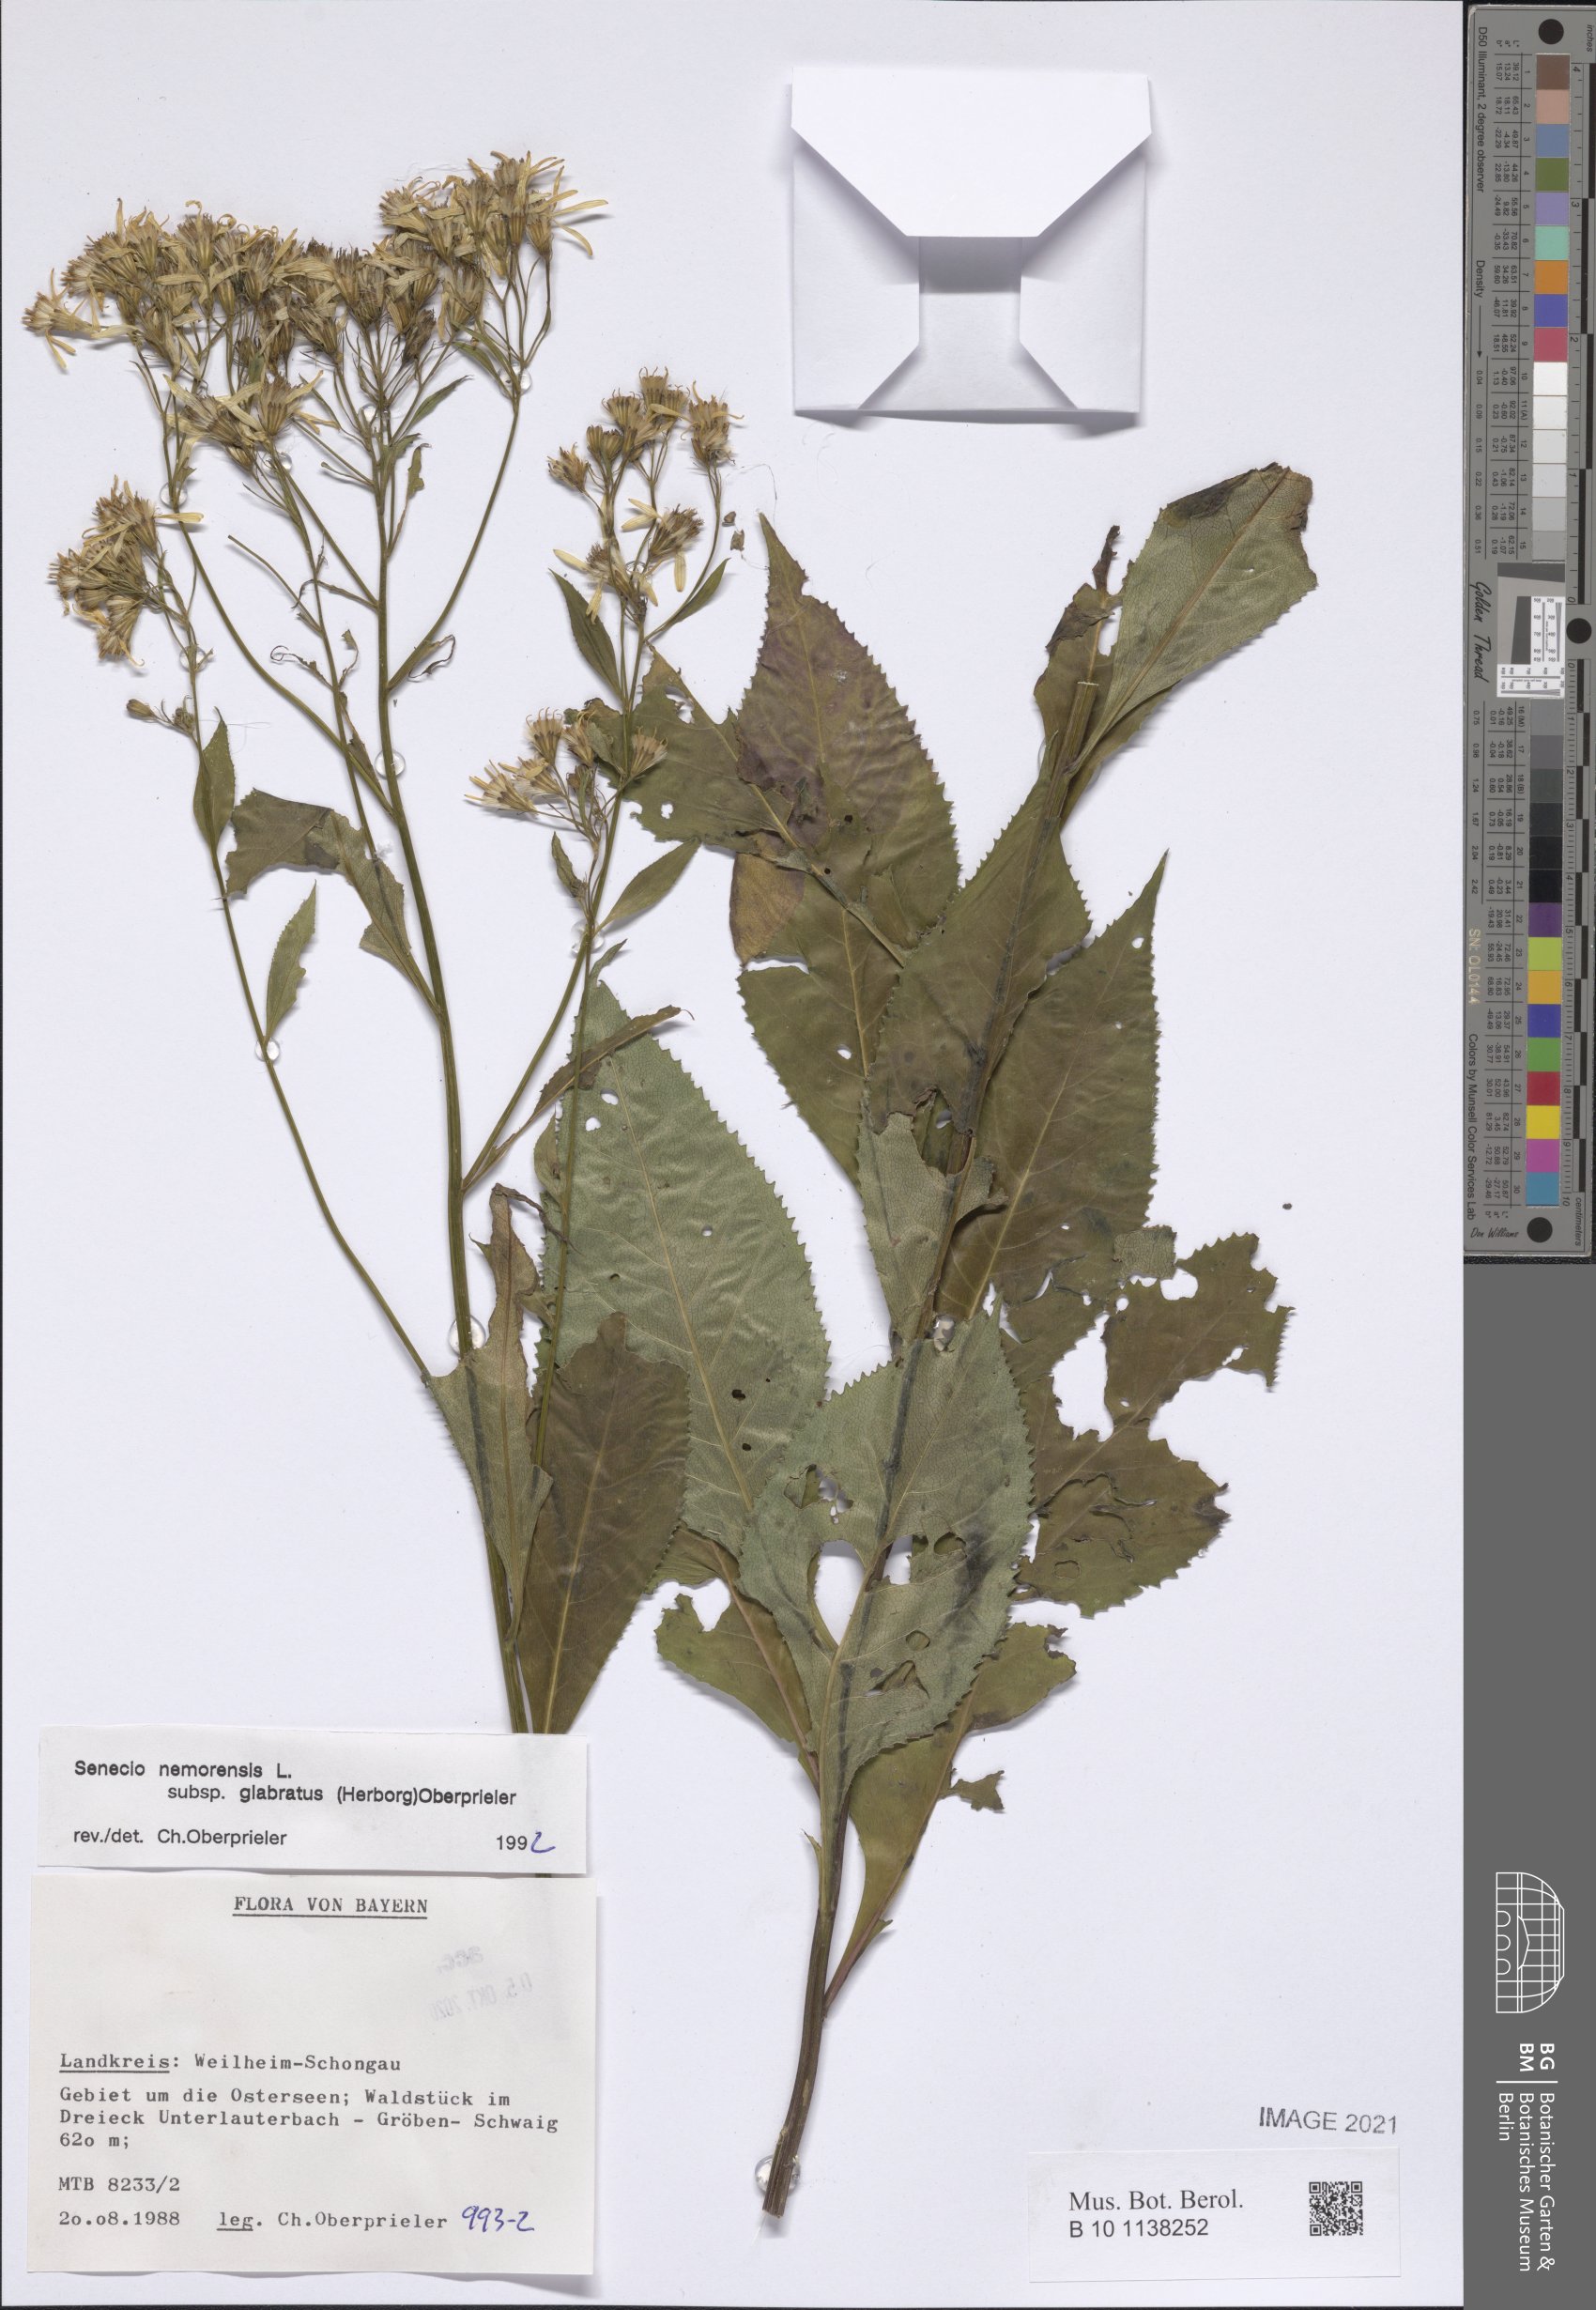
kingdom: Plantae
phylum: Tracheophyta
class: Magnoliopsida
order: Asterales
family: Asteraceae
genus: Senecio
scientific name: Senecio germanicus
